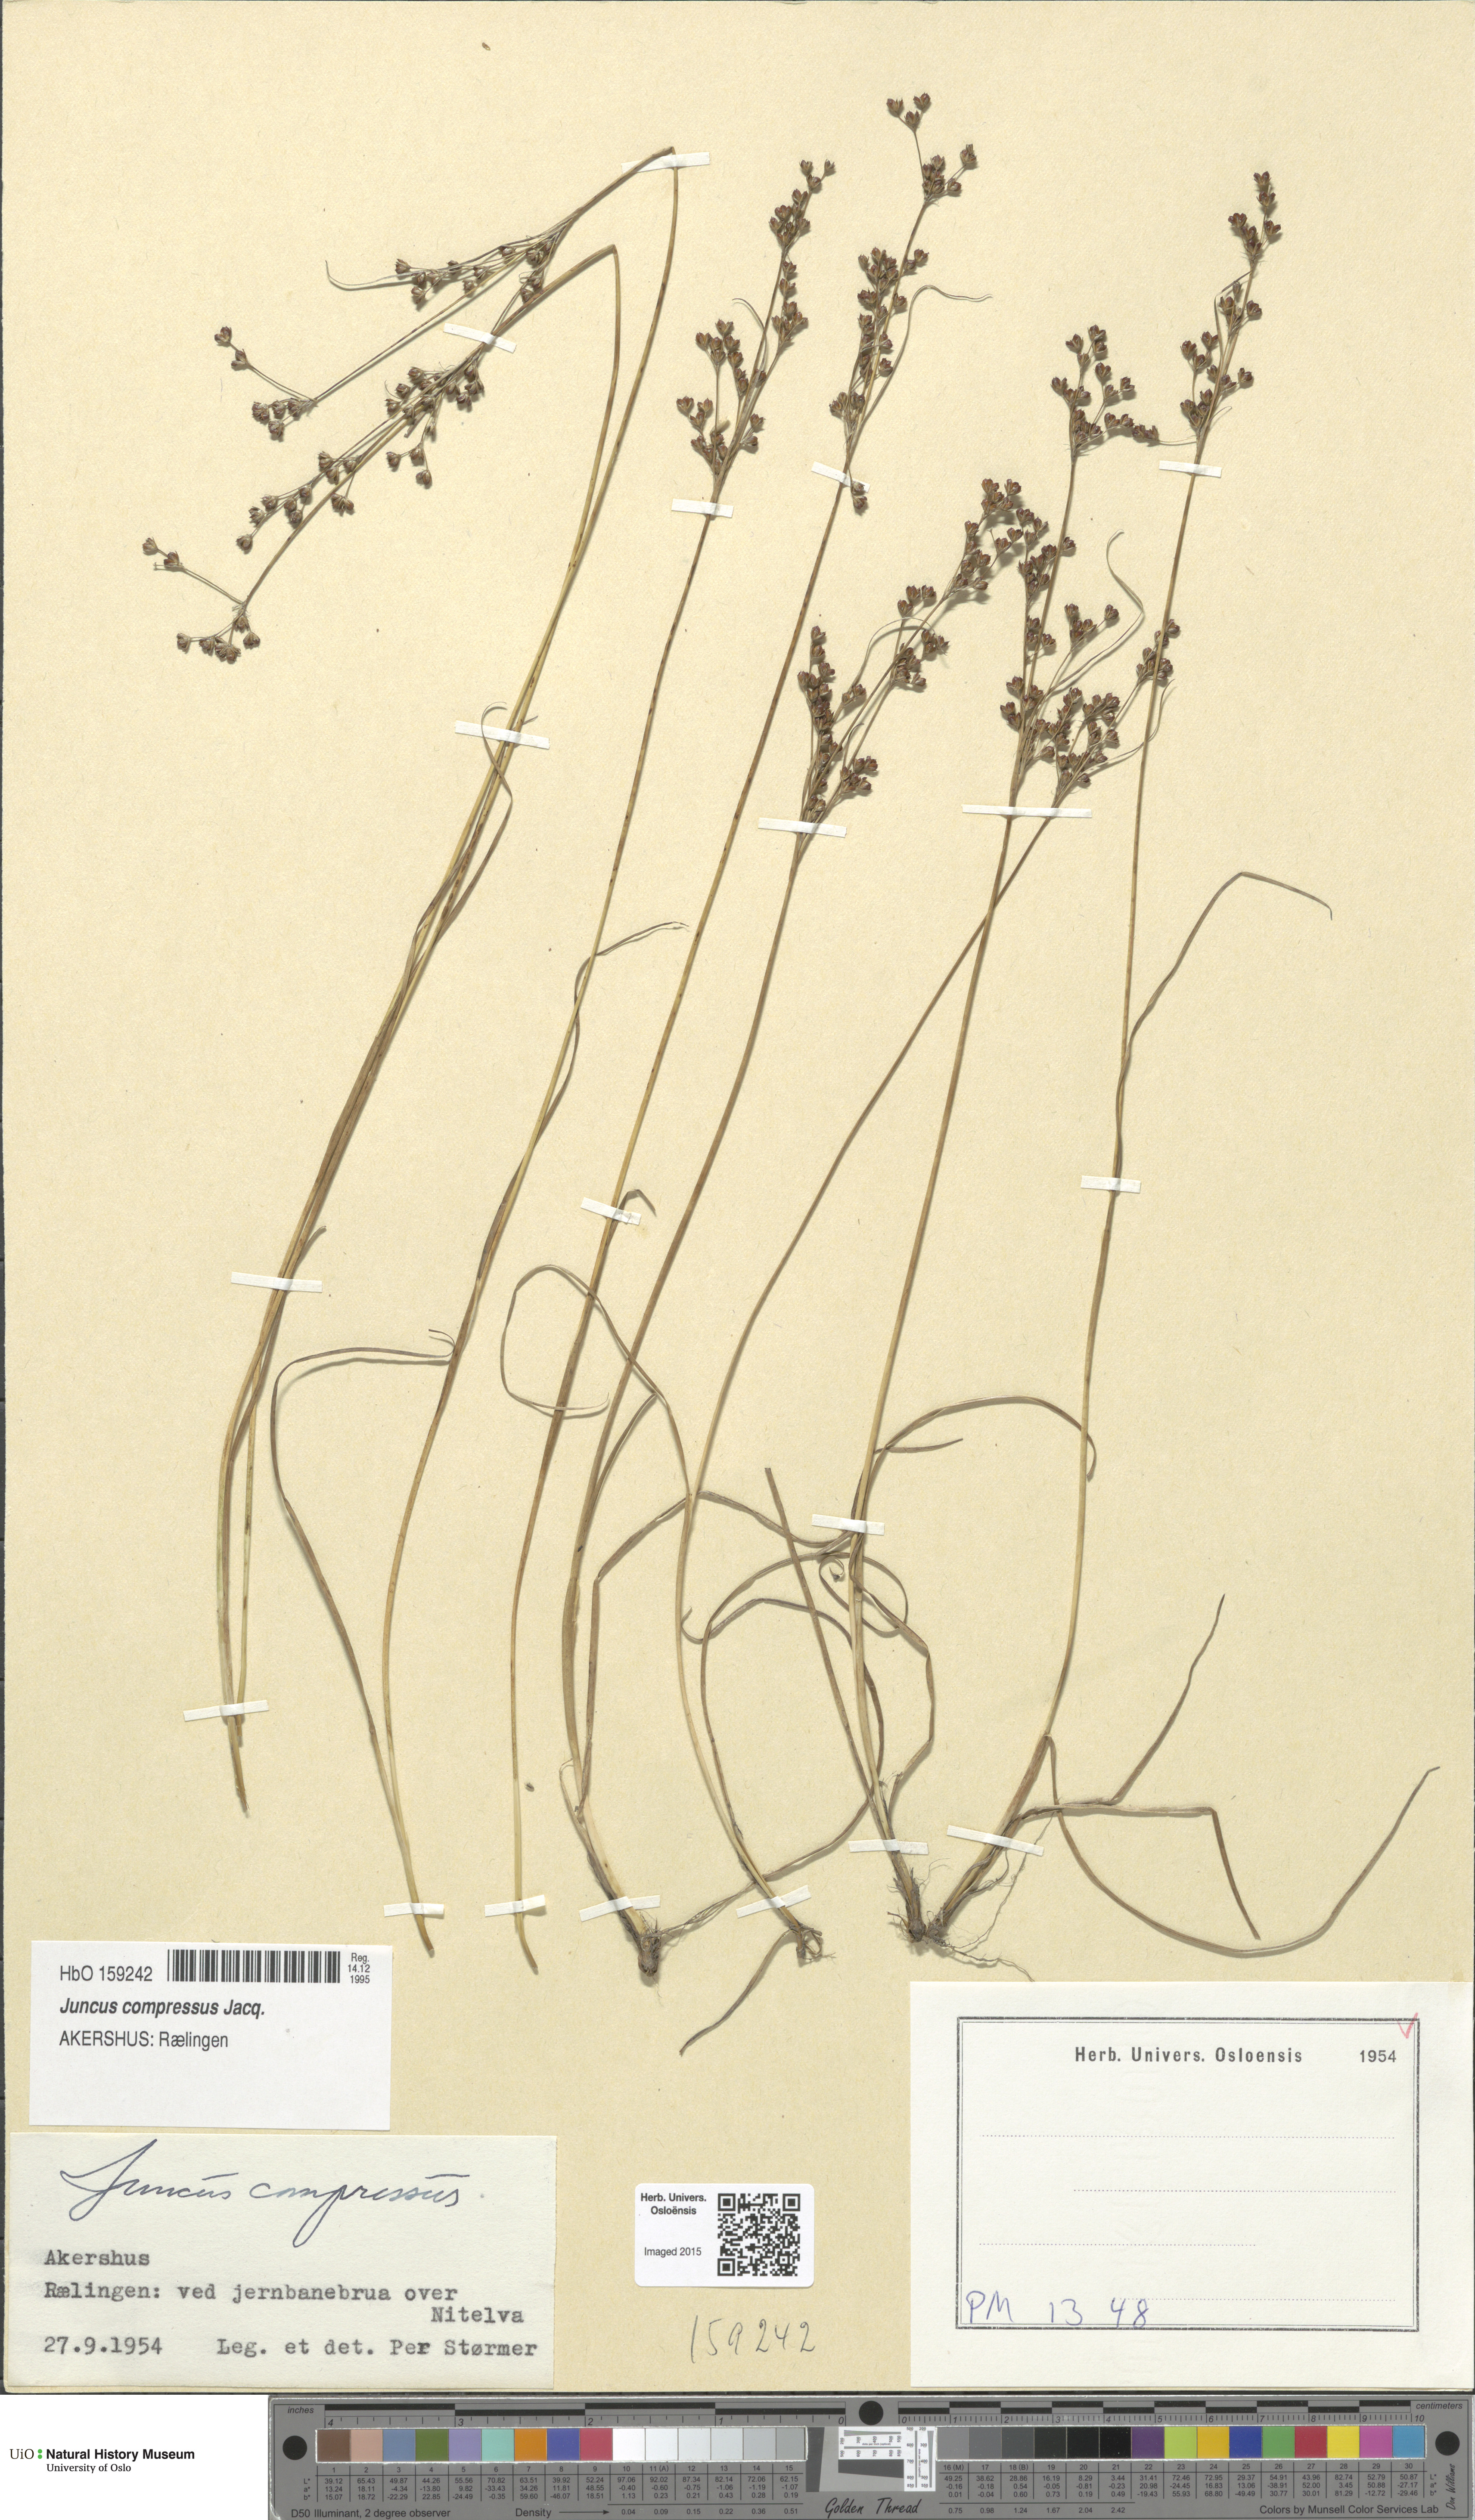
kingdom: Plantae
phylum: Tracheophyta
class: Liliopsida
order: Poales
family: Juncaceae
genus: Juncus
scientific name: Juncus compressus
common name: Round-fruited rush
